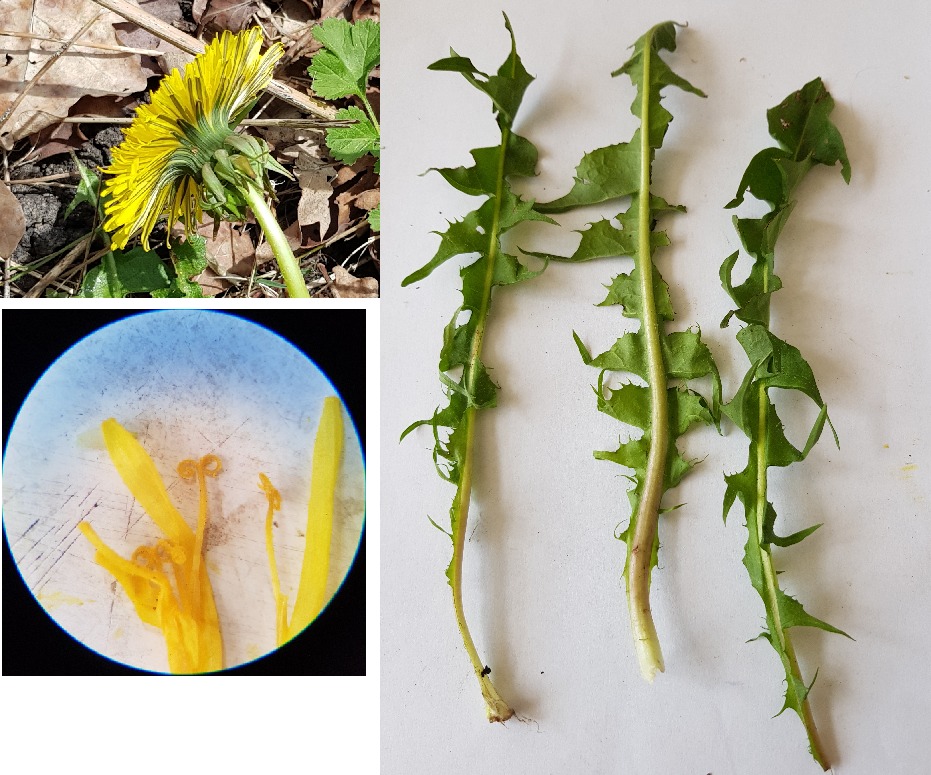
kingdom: Plantae
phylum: Tracheophyta
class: Magnoliopsida
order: Asterales
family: Asteraceae
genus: Taraxacum
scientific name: Taraxacum
